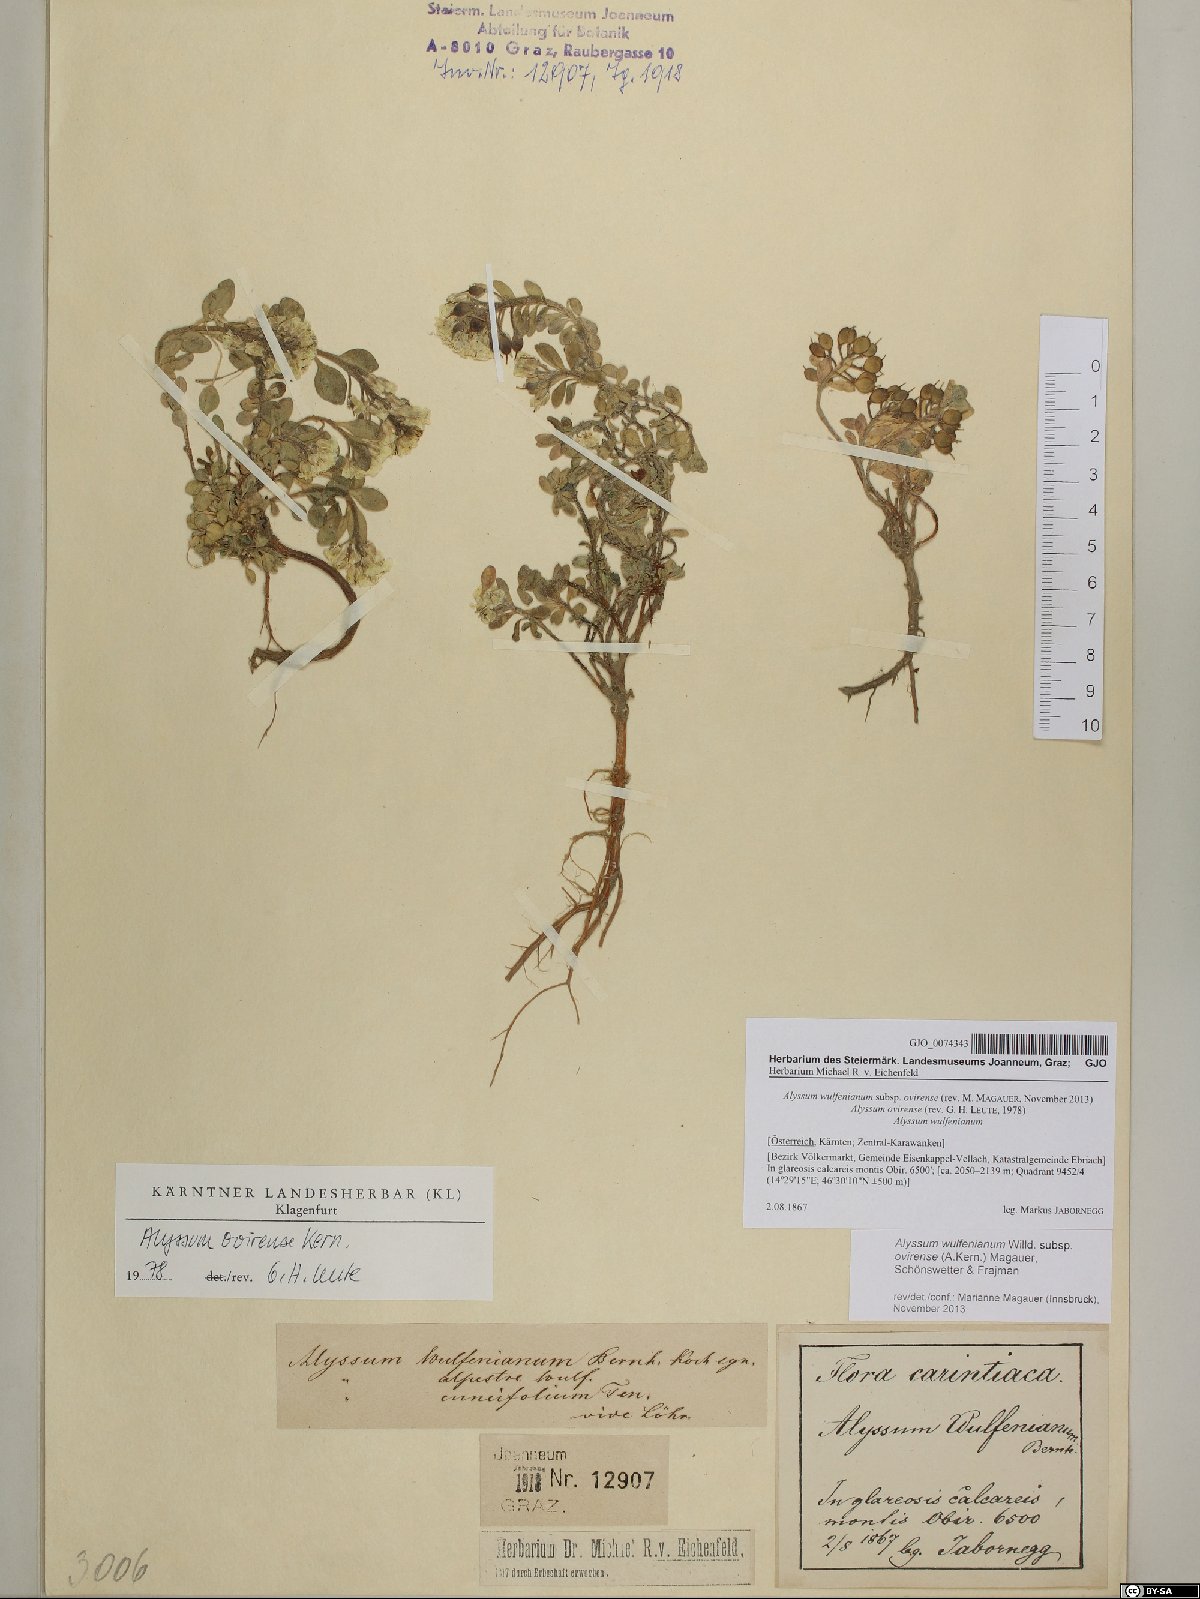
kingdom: Plantae
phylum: Tracheophyta
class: Magnoliopsida
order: Brassicales
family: Brassicaceae
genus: Alyssum
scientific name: Alyssum wulfenianum
